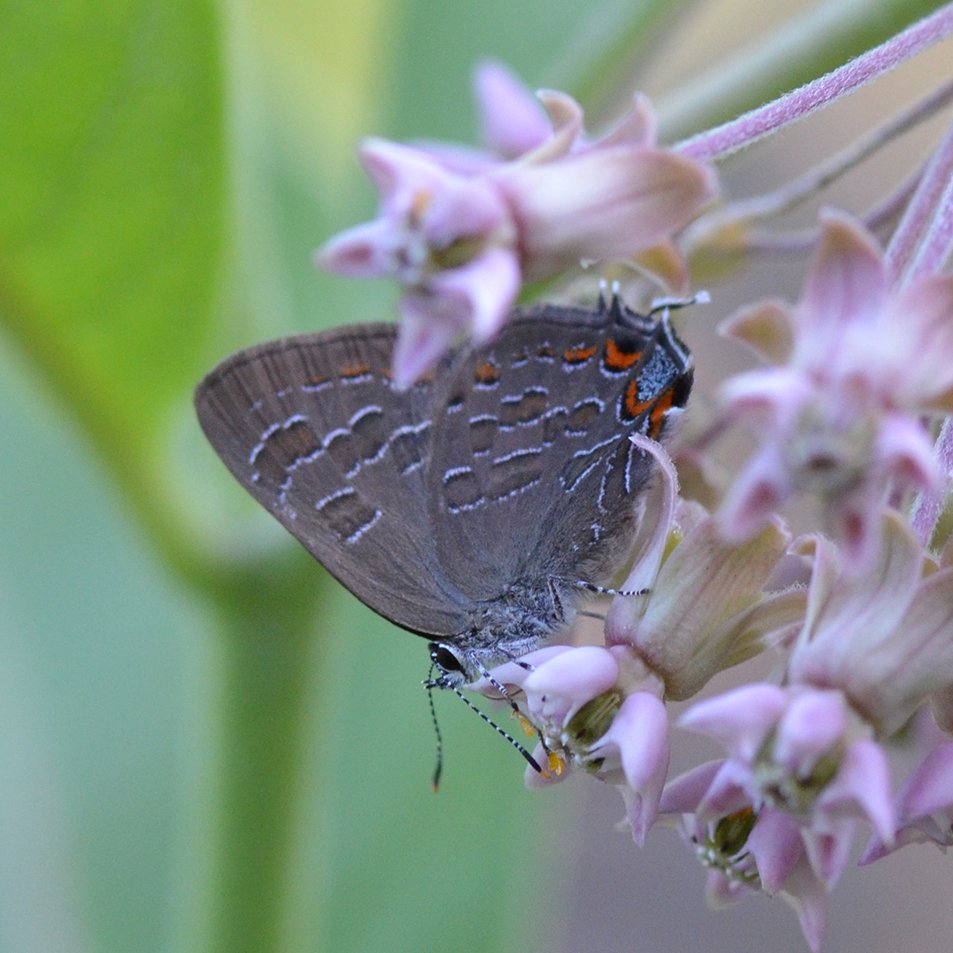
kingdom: Animalia
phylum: Arthropoda
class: Insecta
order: Lepidoptera
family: Lycaenidae
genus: Satyrium
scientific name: Satyrium liparops
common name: Striped Hairstreak
